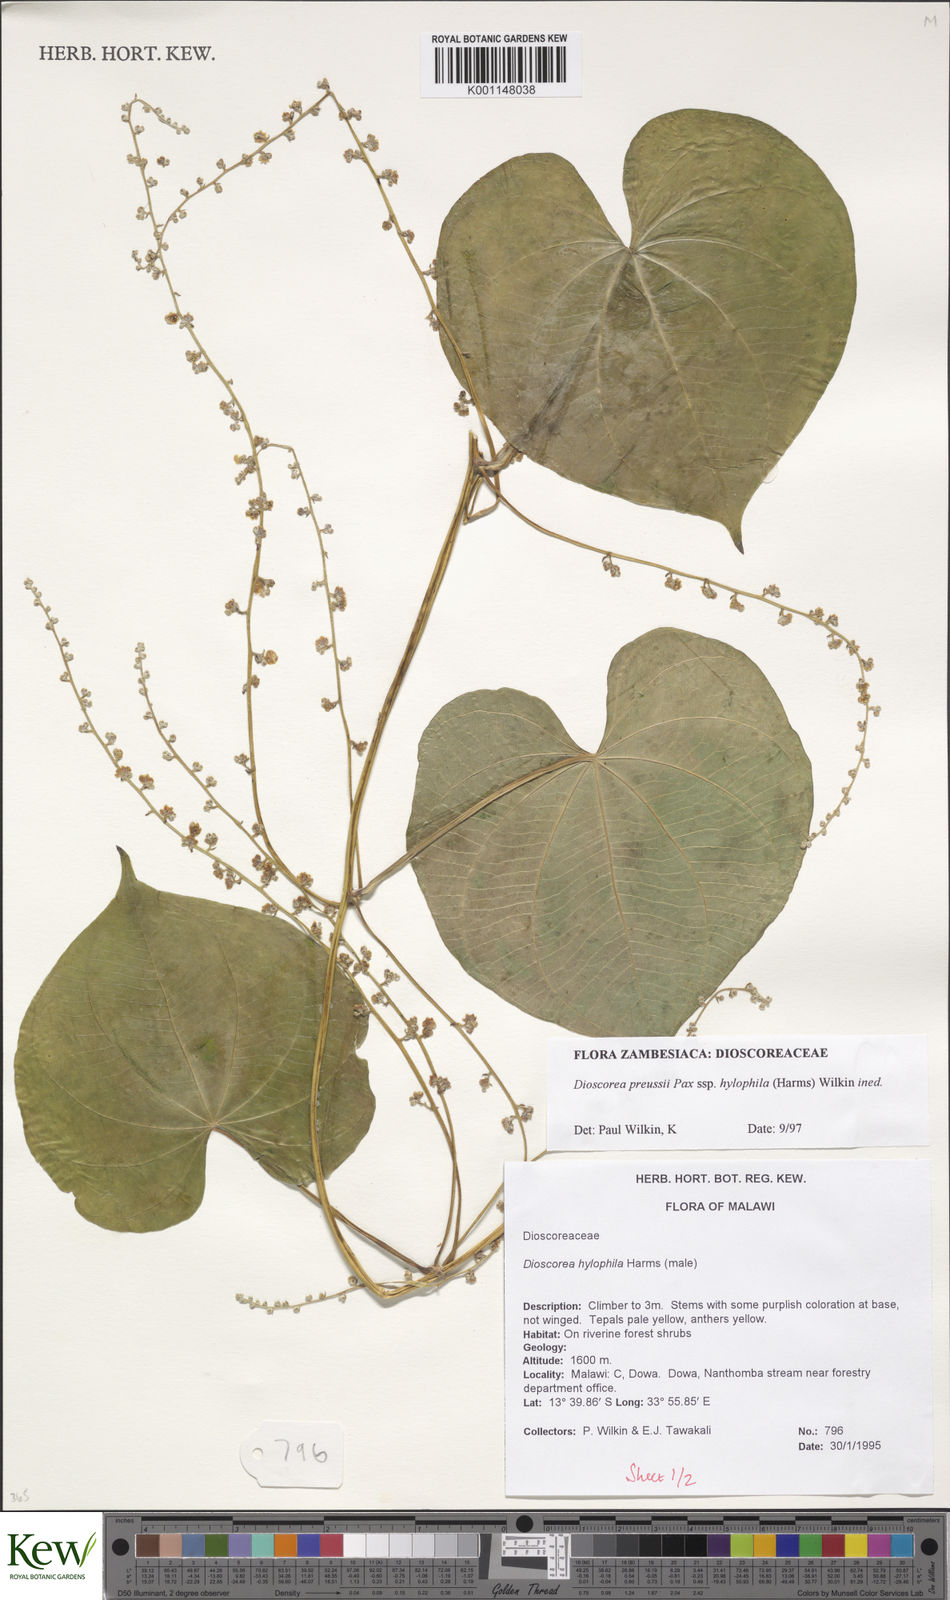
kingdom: Plantae
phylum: Tracheophyta
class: Liliopsida
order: Dioscoreales
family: Dioscoreaceae
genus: Dioscorea
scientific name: Dioscorea preussii
